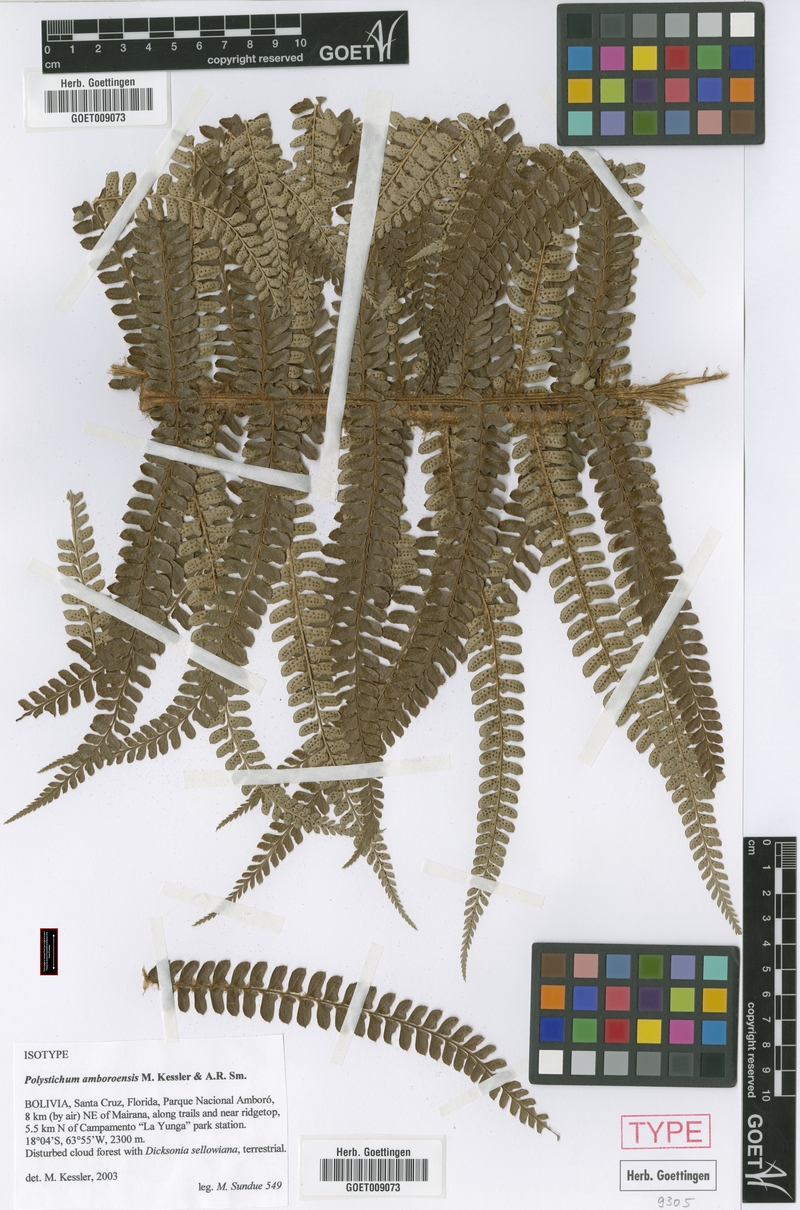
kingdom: Plantae
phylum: Tracheophyta
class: Polypodiopsida
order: Polypodiales
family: Dryopteridaceae
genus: Polystichum
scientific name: Polystichum amboroensis
